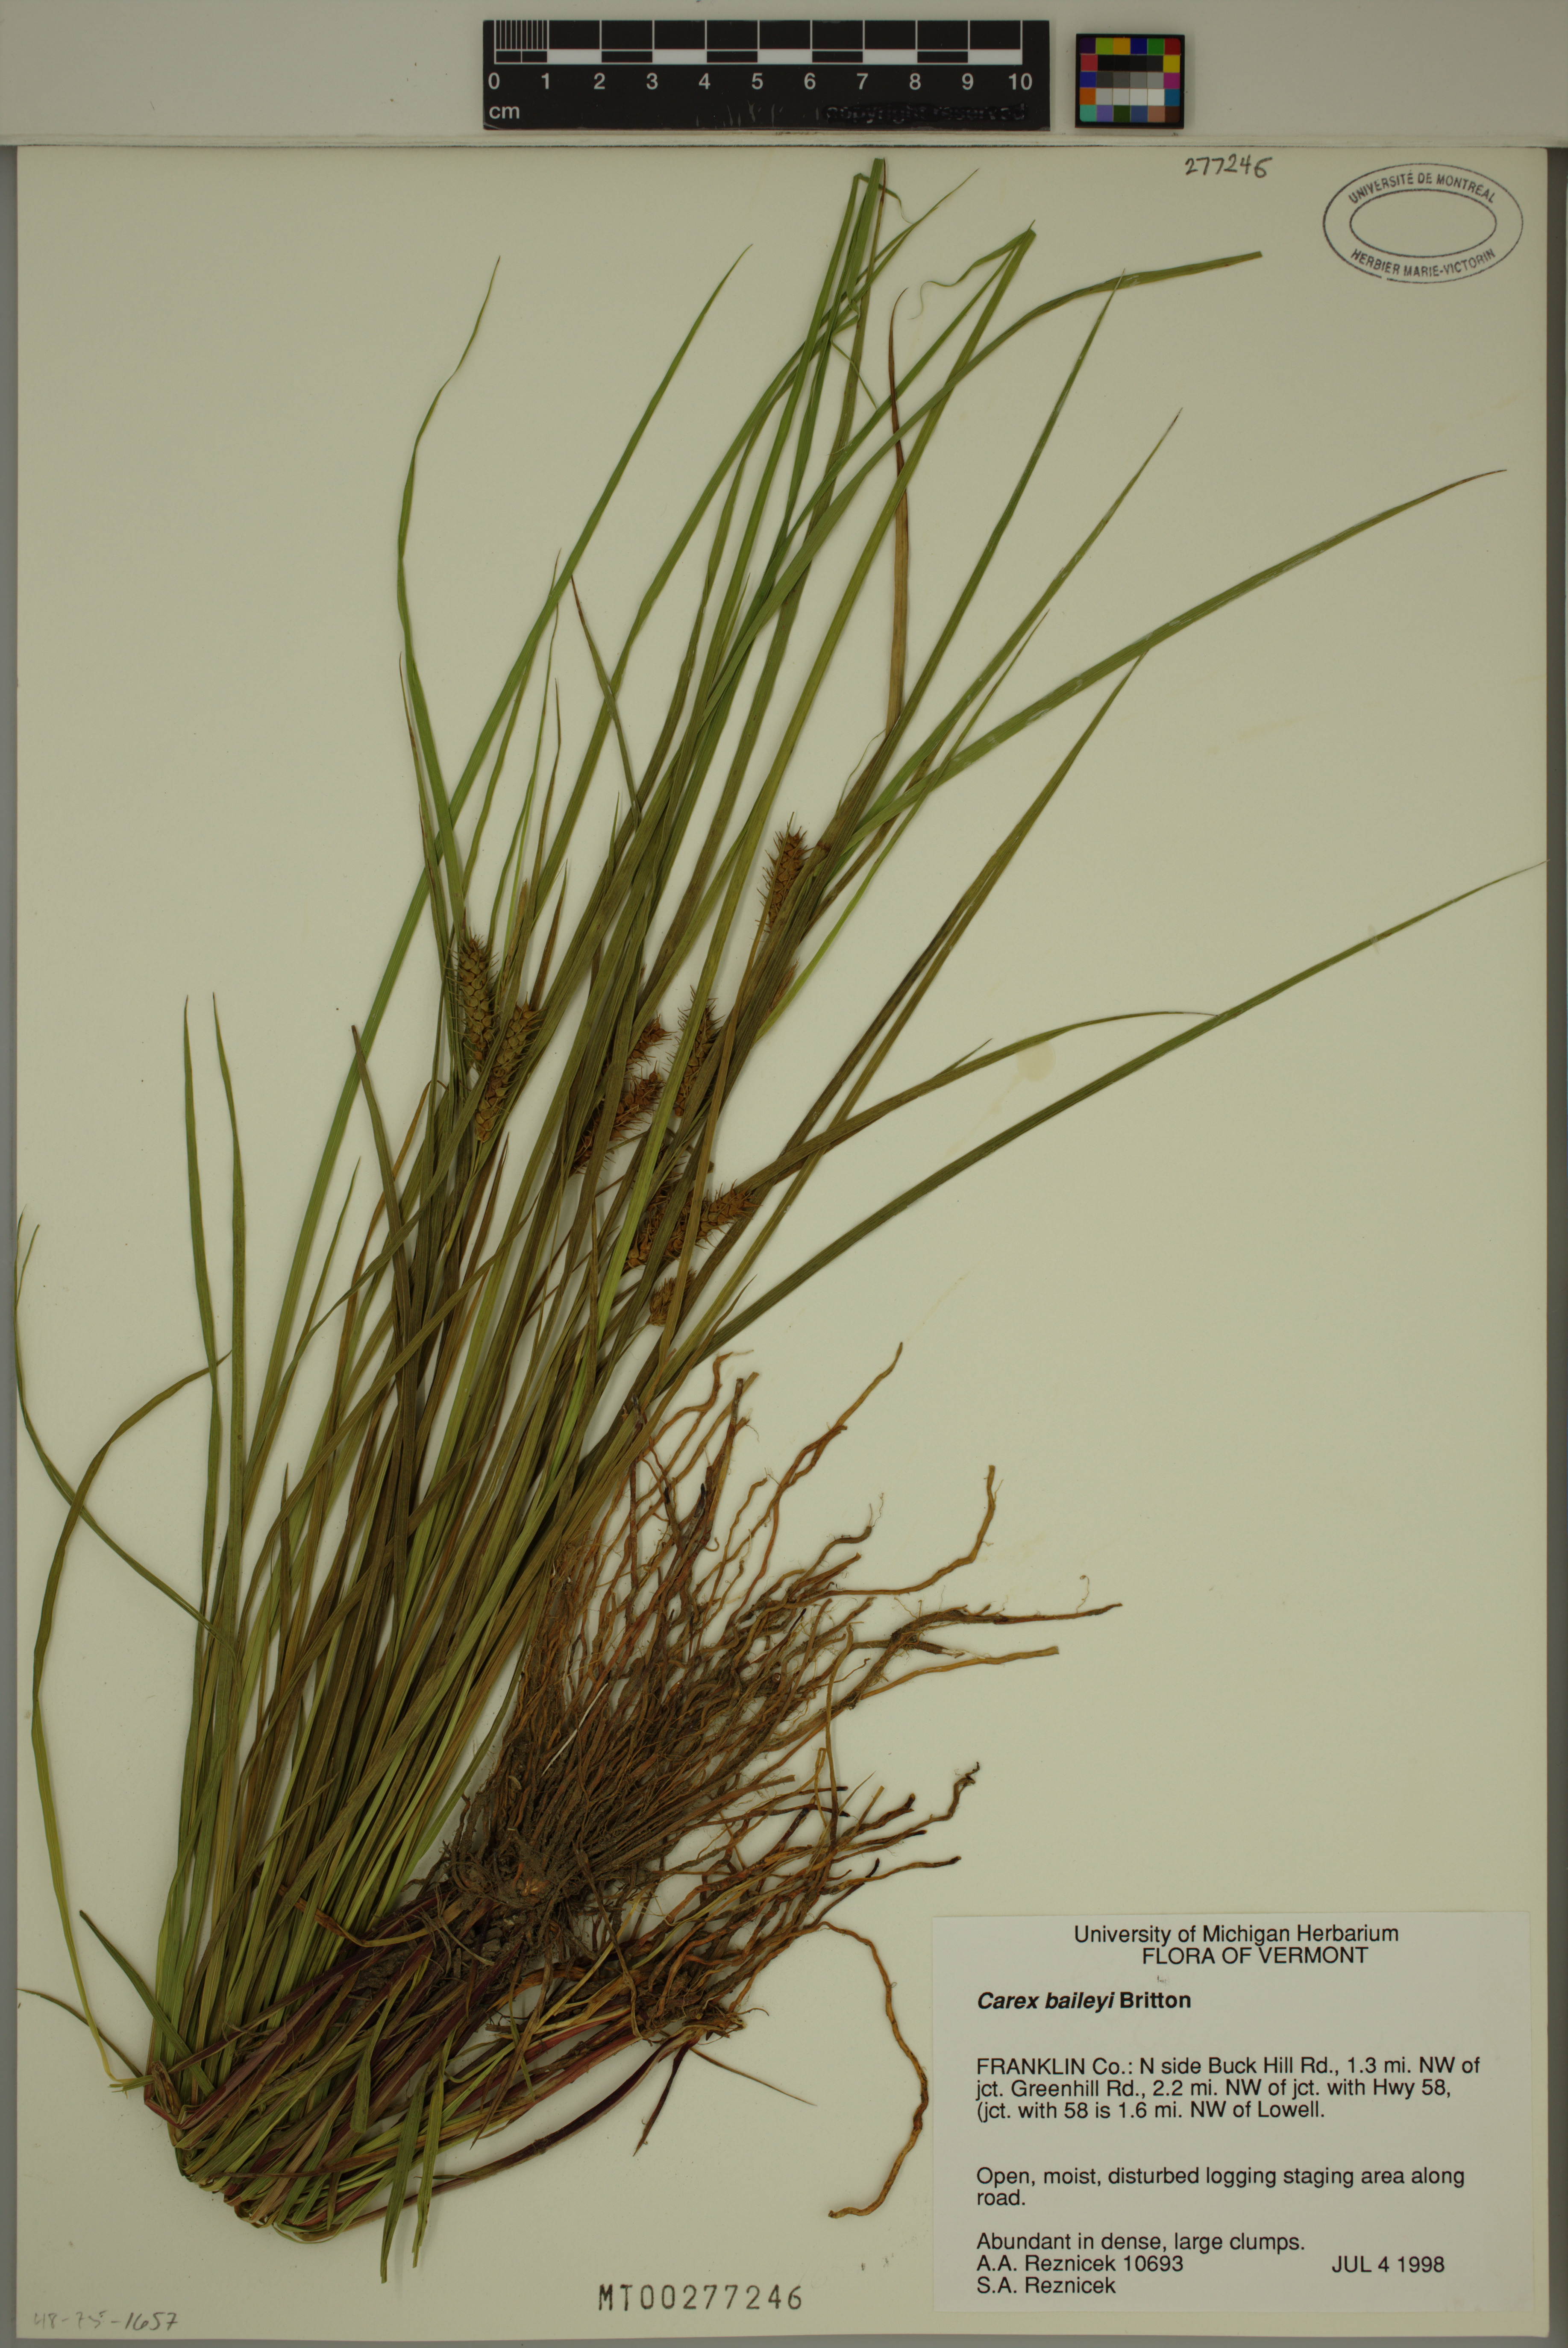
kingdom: Plantae
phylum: Tracheophyta
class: Liliopsida
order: Poales
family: Cyperaceae
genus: Carex
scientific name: Carex baileyi
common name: Bailey's sedge
